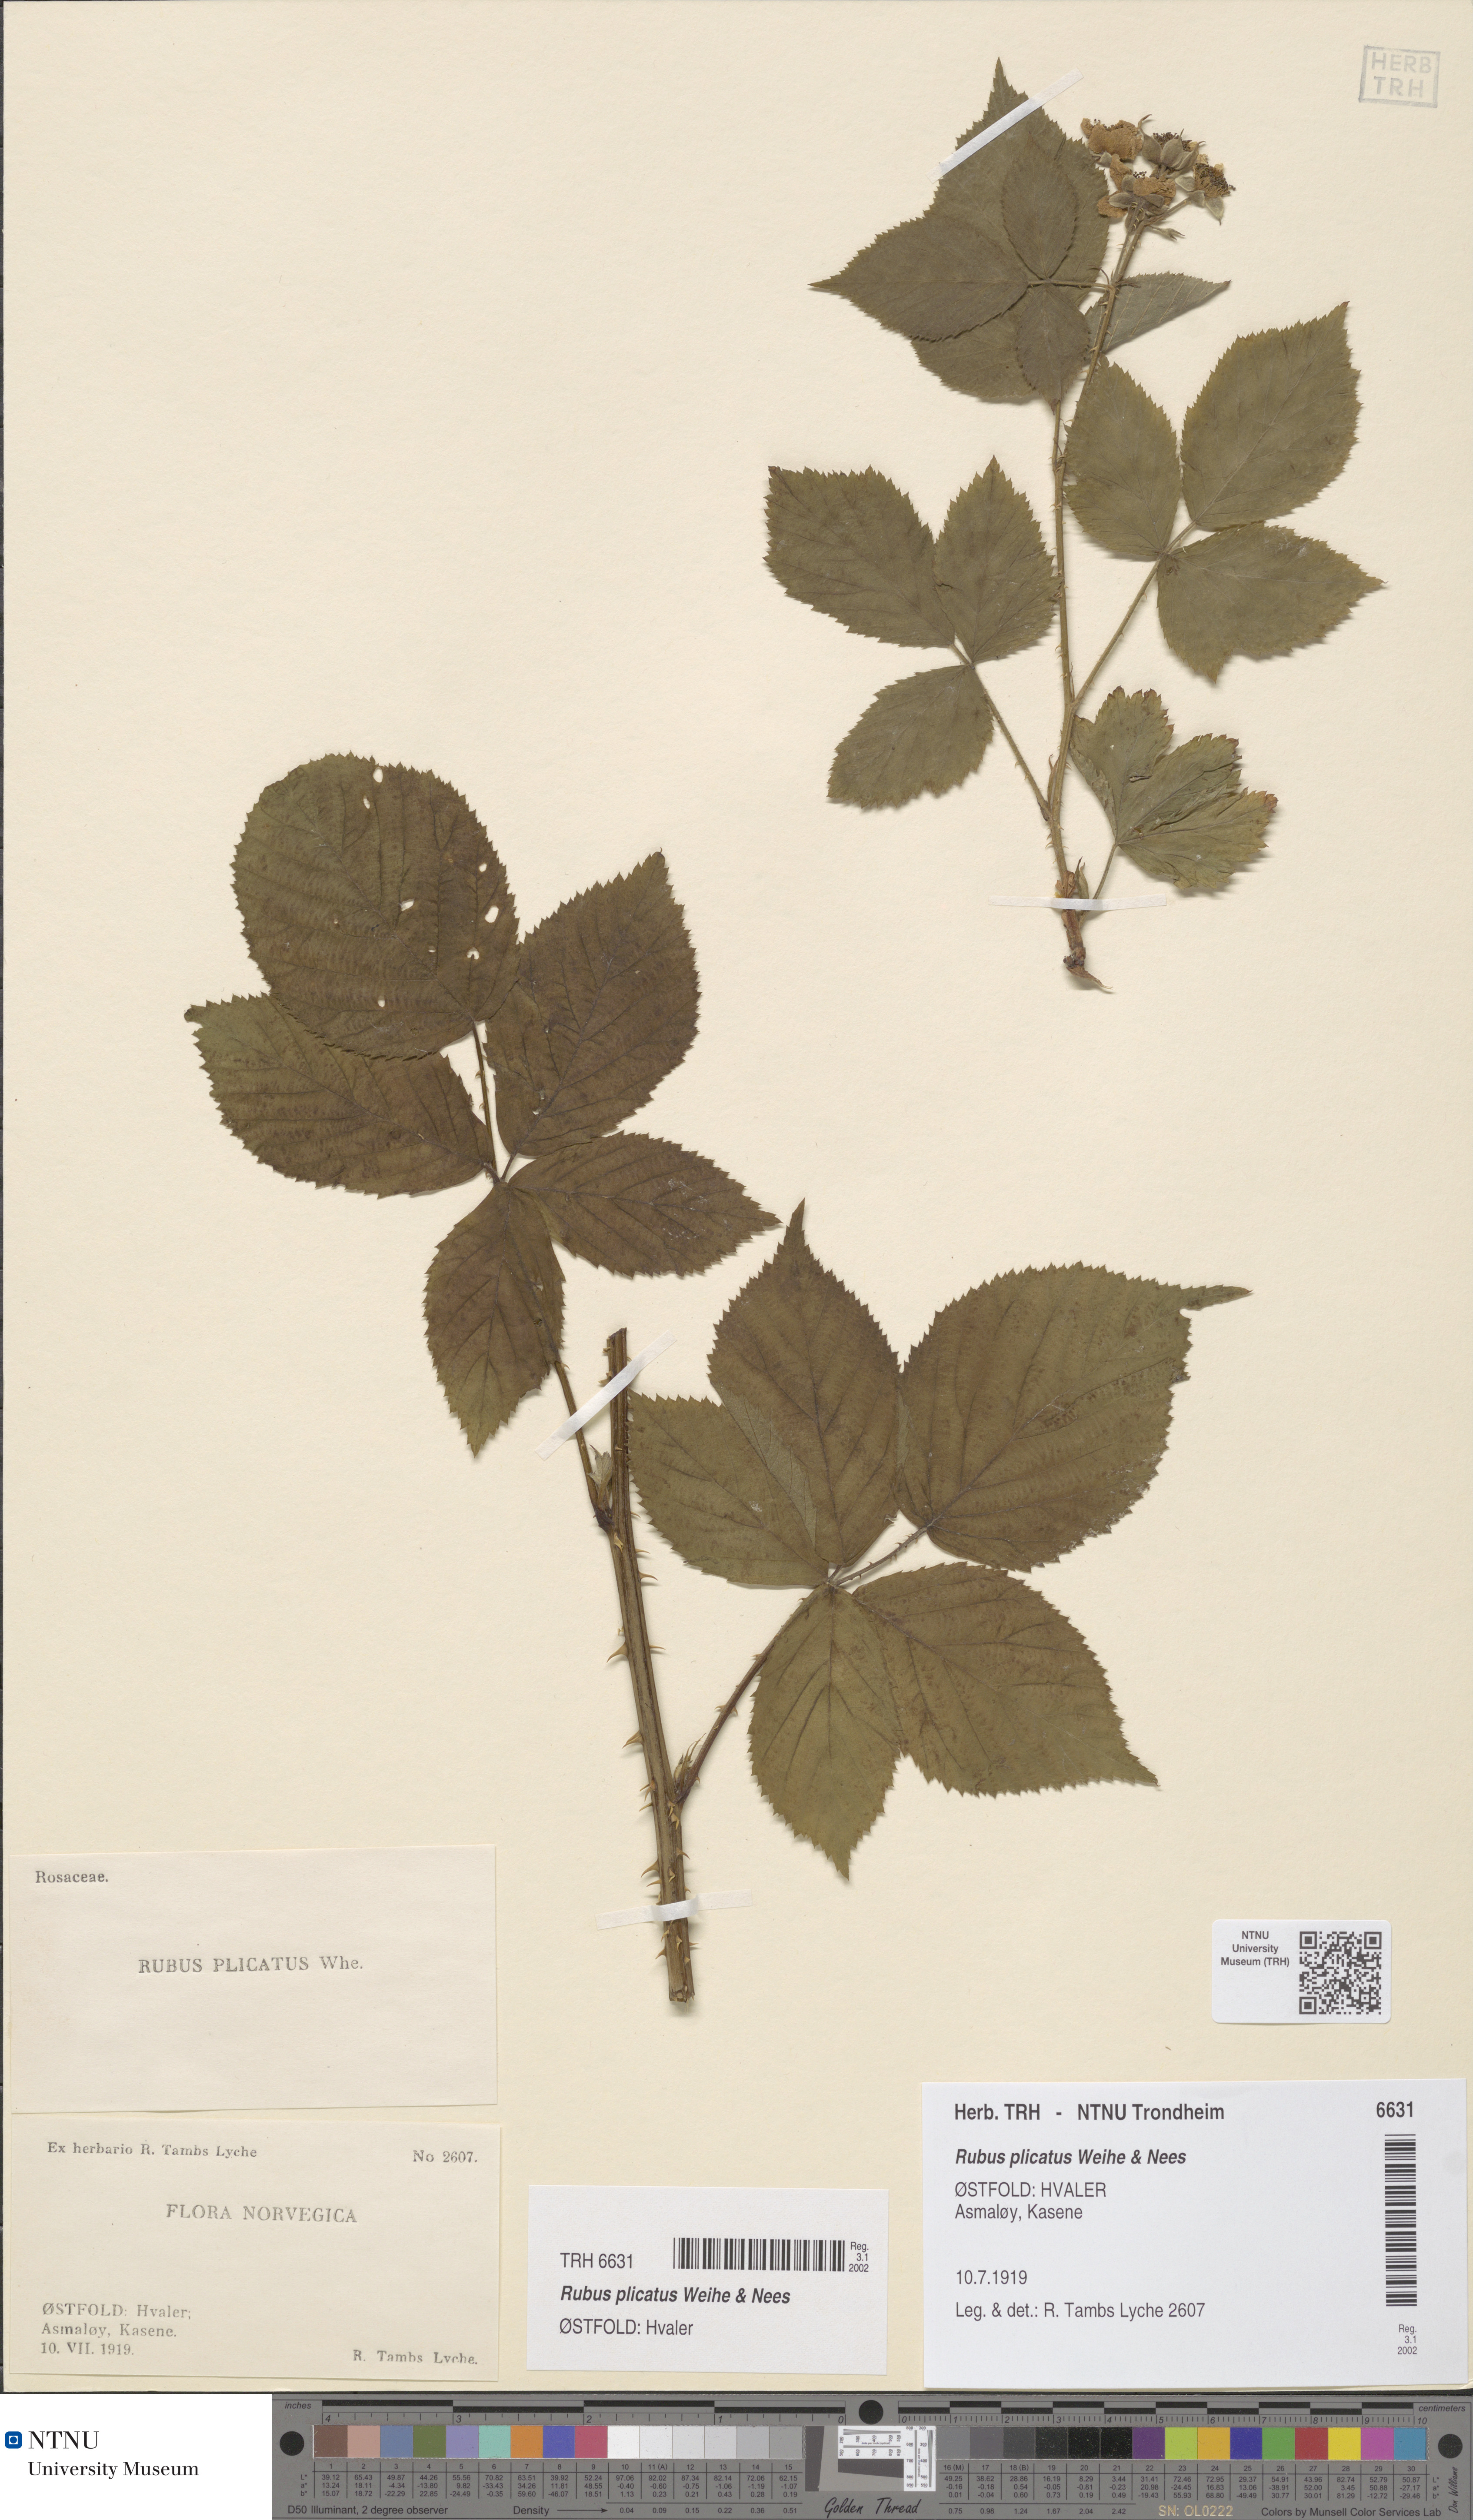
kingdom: Plantae
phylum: Tracheophyta
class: Magnoliopsida
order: Rosales
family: Rosaceae
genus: Rubus
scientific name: Rubus fruticosus
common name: Blackberry, bramble
